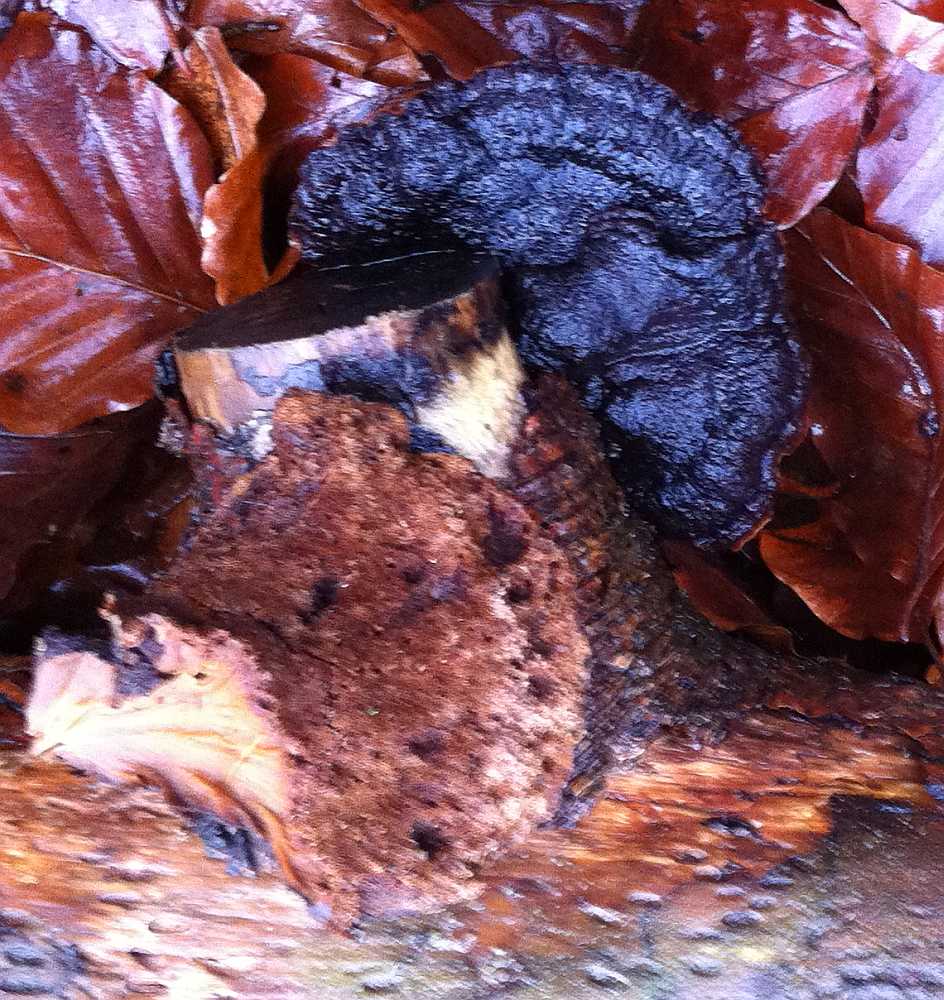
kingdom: Fungi
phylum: Basidiomycota
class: Agaricomycetes
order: Polyporales
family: Ischnodermataceae
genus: Ischnoderma
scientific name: Ischnoderma benzoinum
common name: gran-tjæreporesvamp
